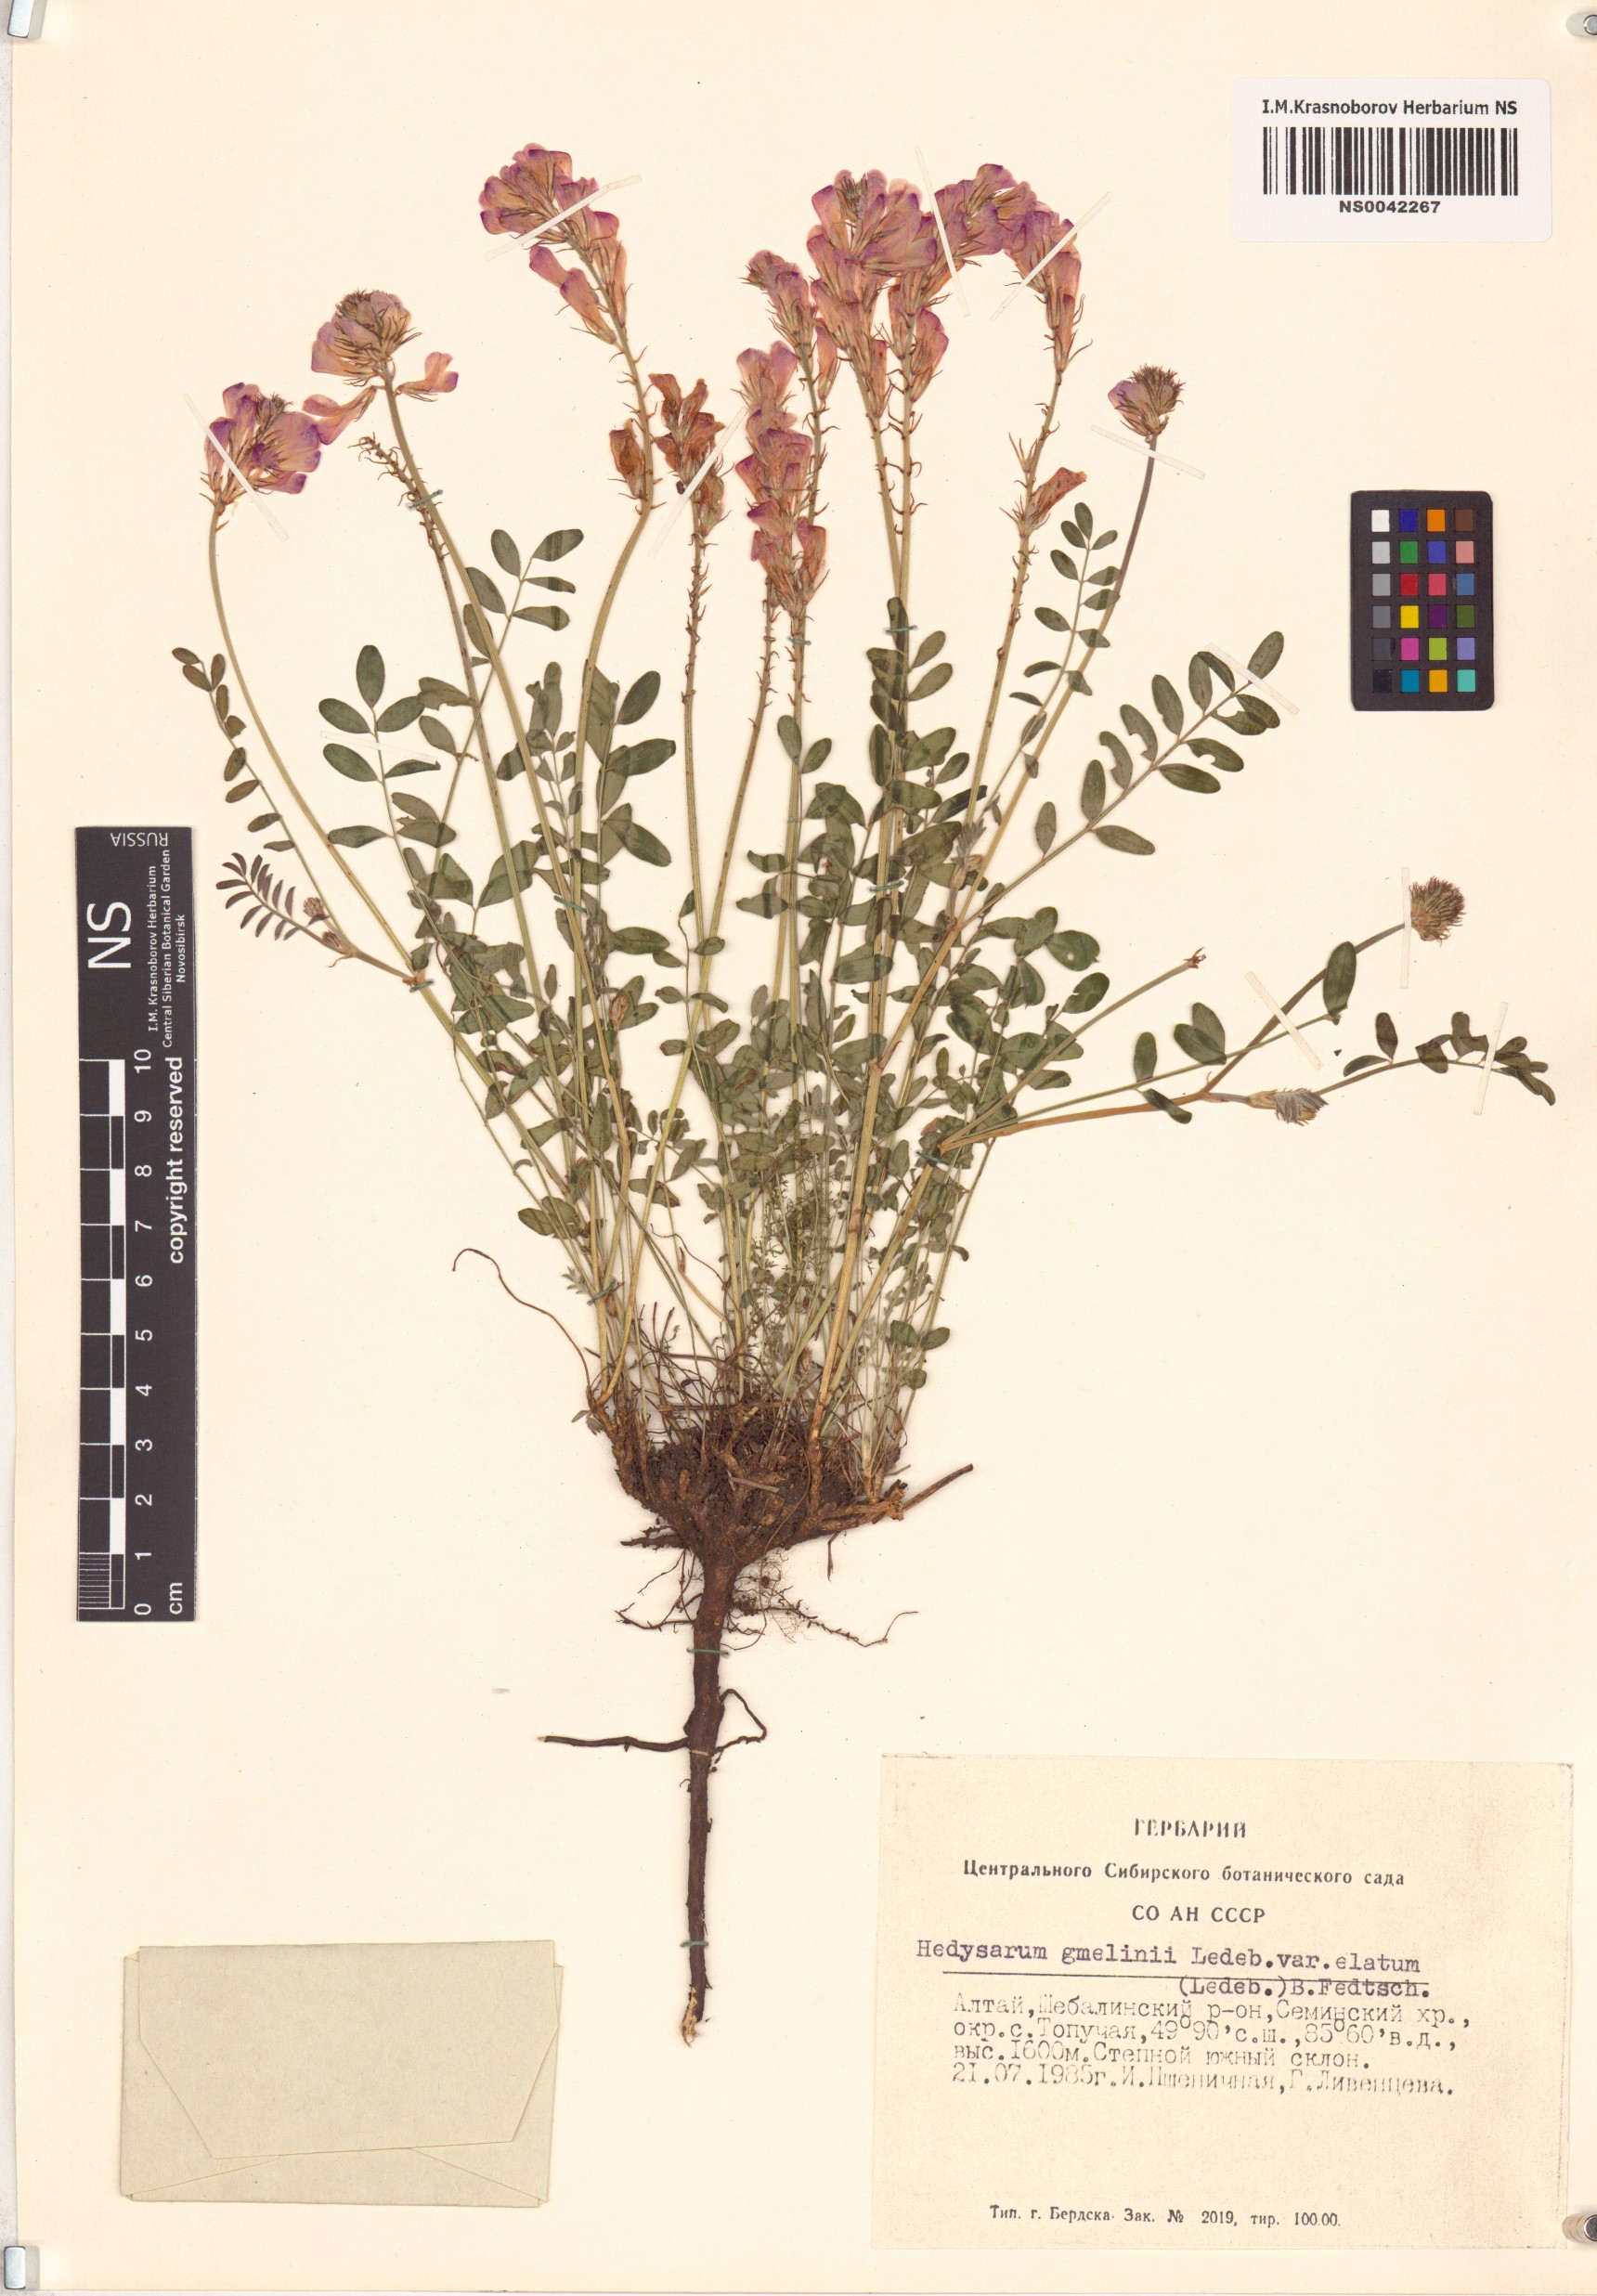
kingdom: Plantae
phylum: Tracheophyta
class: Magnoliopsida
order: Fabales
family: Fabaceae
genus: Hedysarum
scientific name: Hedysarum gmelinii
